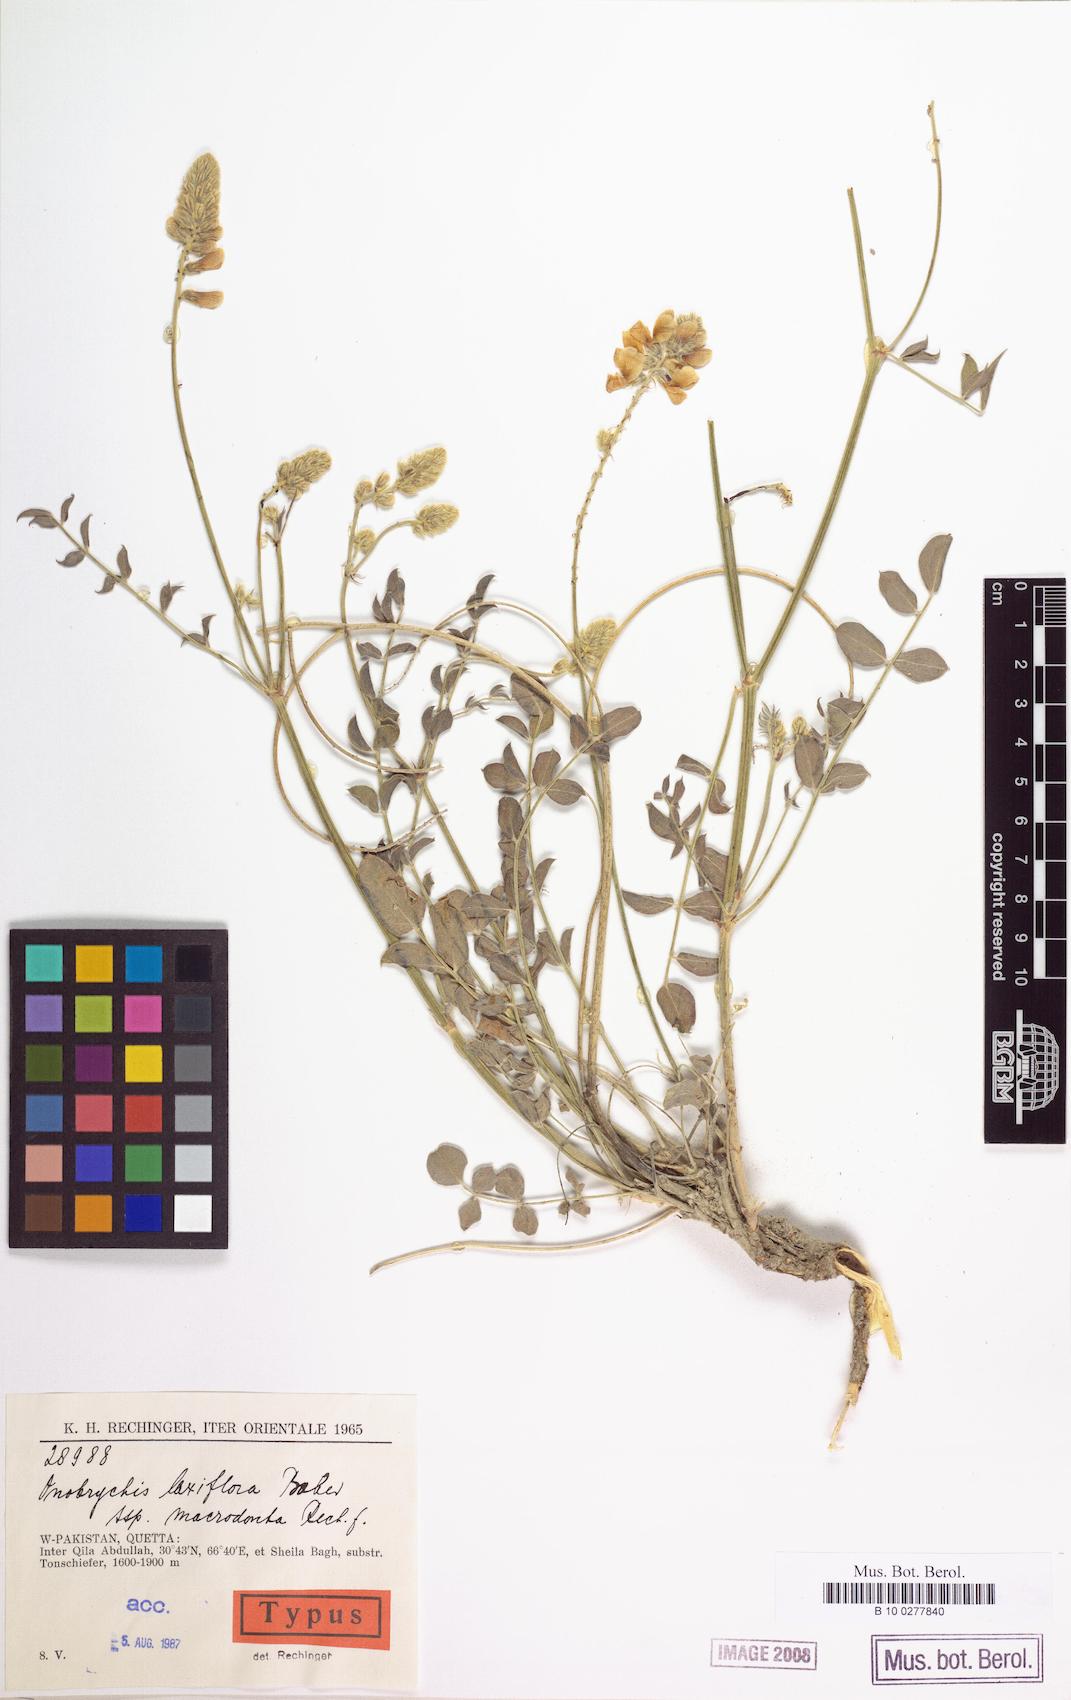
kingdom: Plantae
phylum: Tracheophyta
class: Magnoliopsida
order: Fabales
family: Fabaceae
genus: Onobrychis
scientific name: Onobrychis laxiflora
